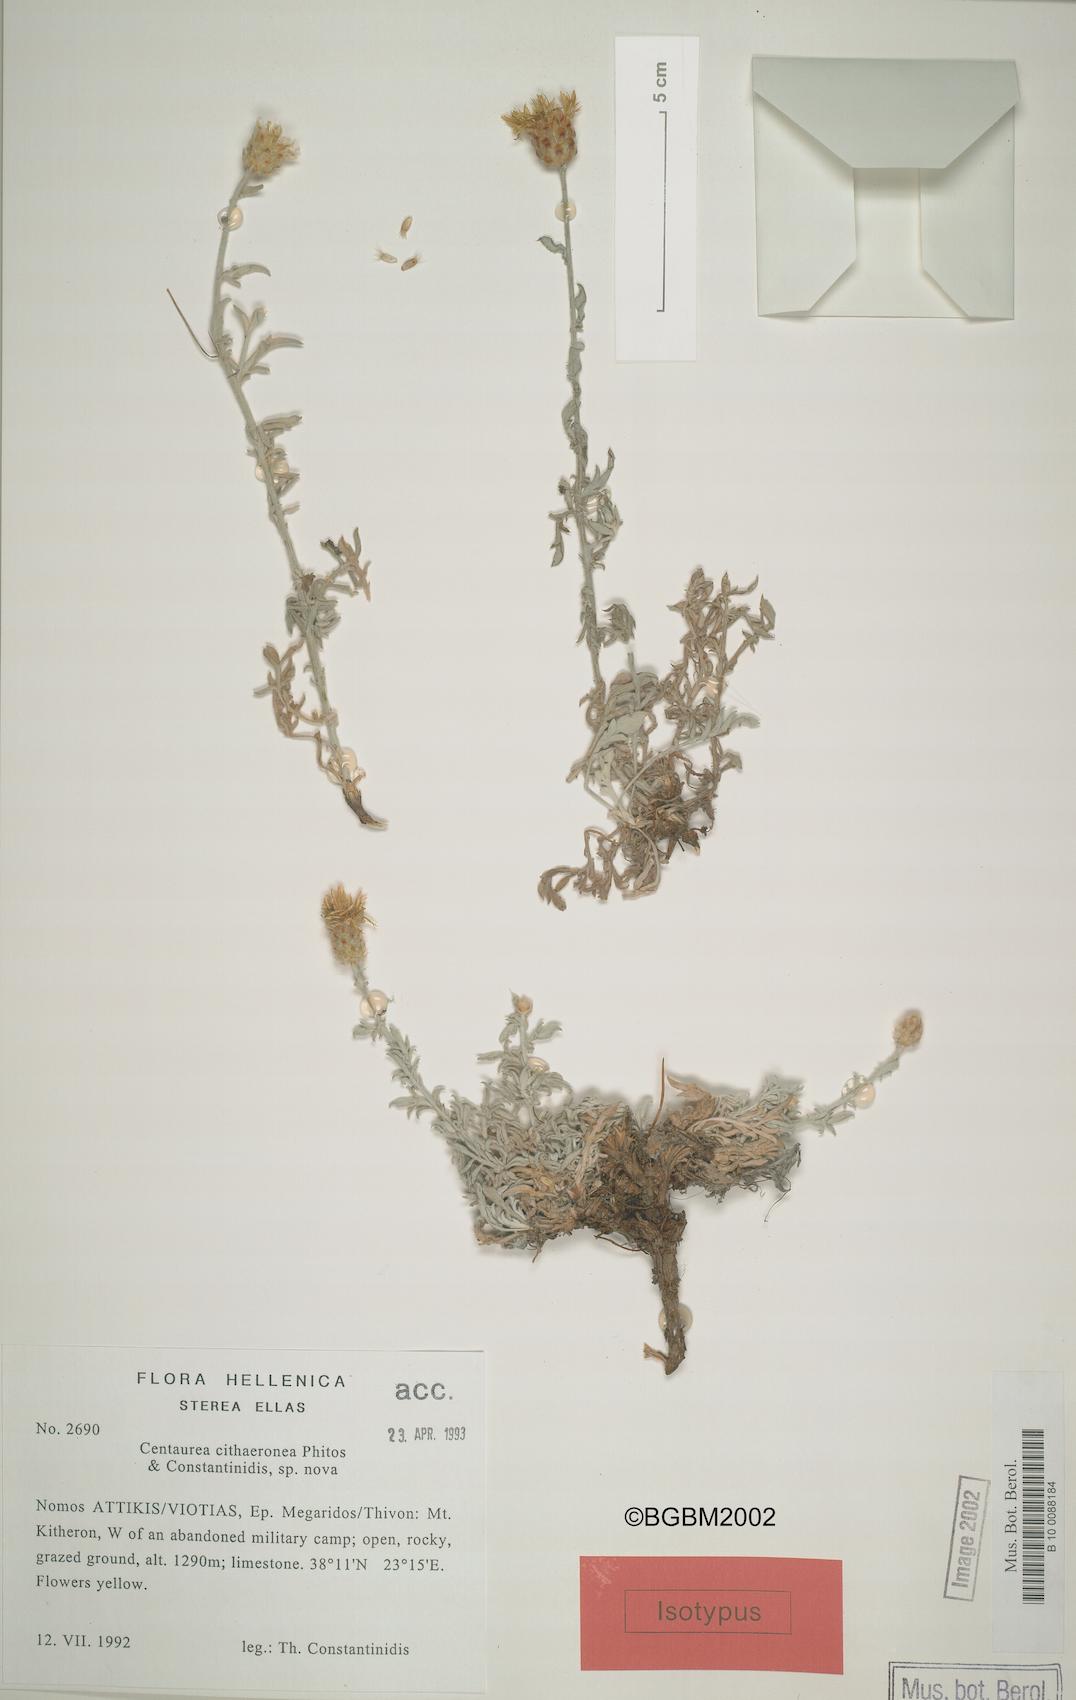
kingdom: Plantae
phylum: Tracheophyta
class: Magnoliopsida
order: Asterales
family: Asteraceae
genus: Centaurea
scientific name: Centaurea cithaeronea
